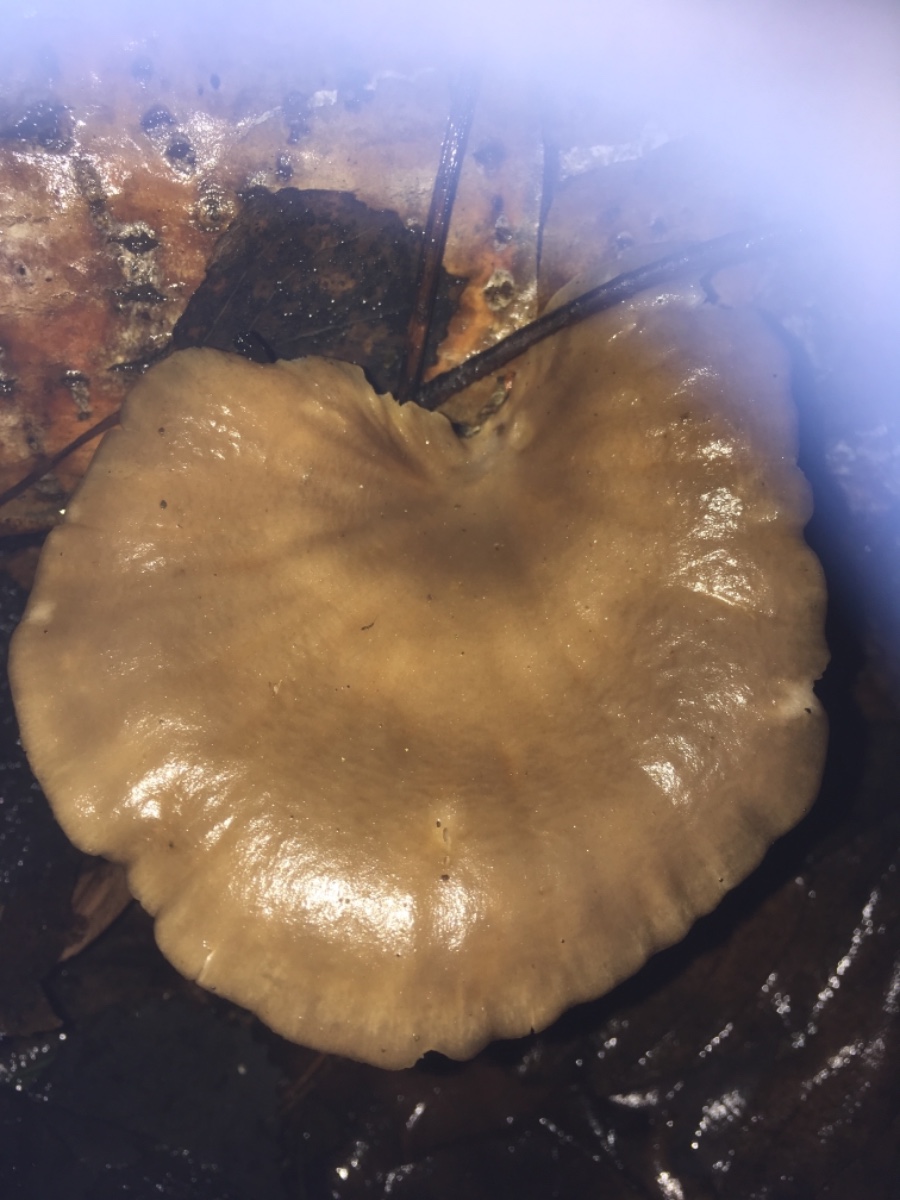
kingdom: Fungi
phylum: Basidiomycota
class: Agaricomycetes
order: Agaricales
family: Pleurotaceae
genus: Pleurotus
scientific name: Pleurotus ostreatus
